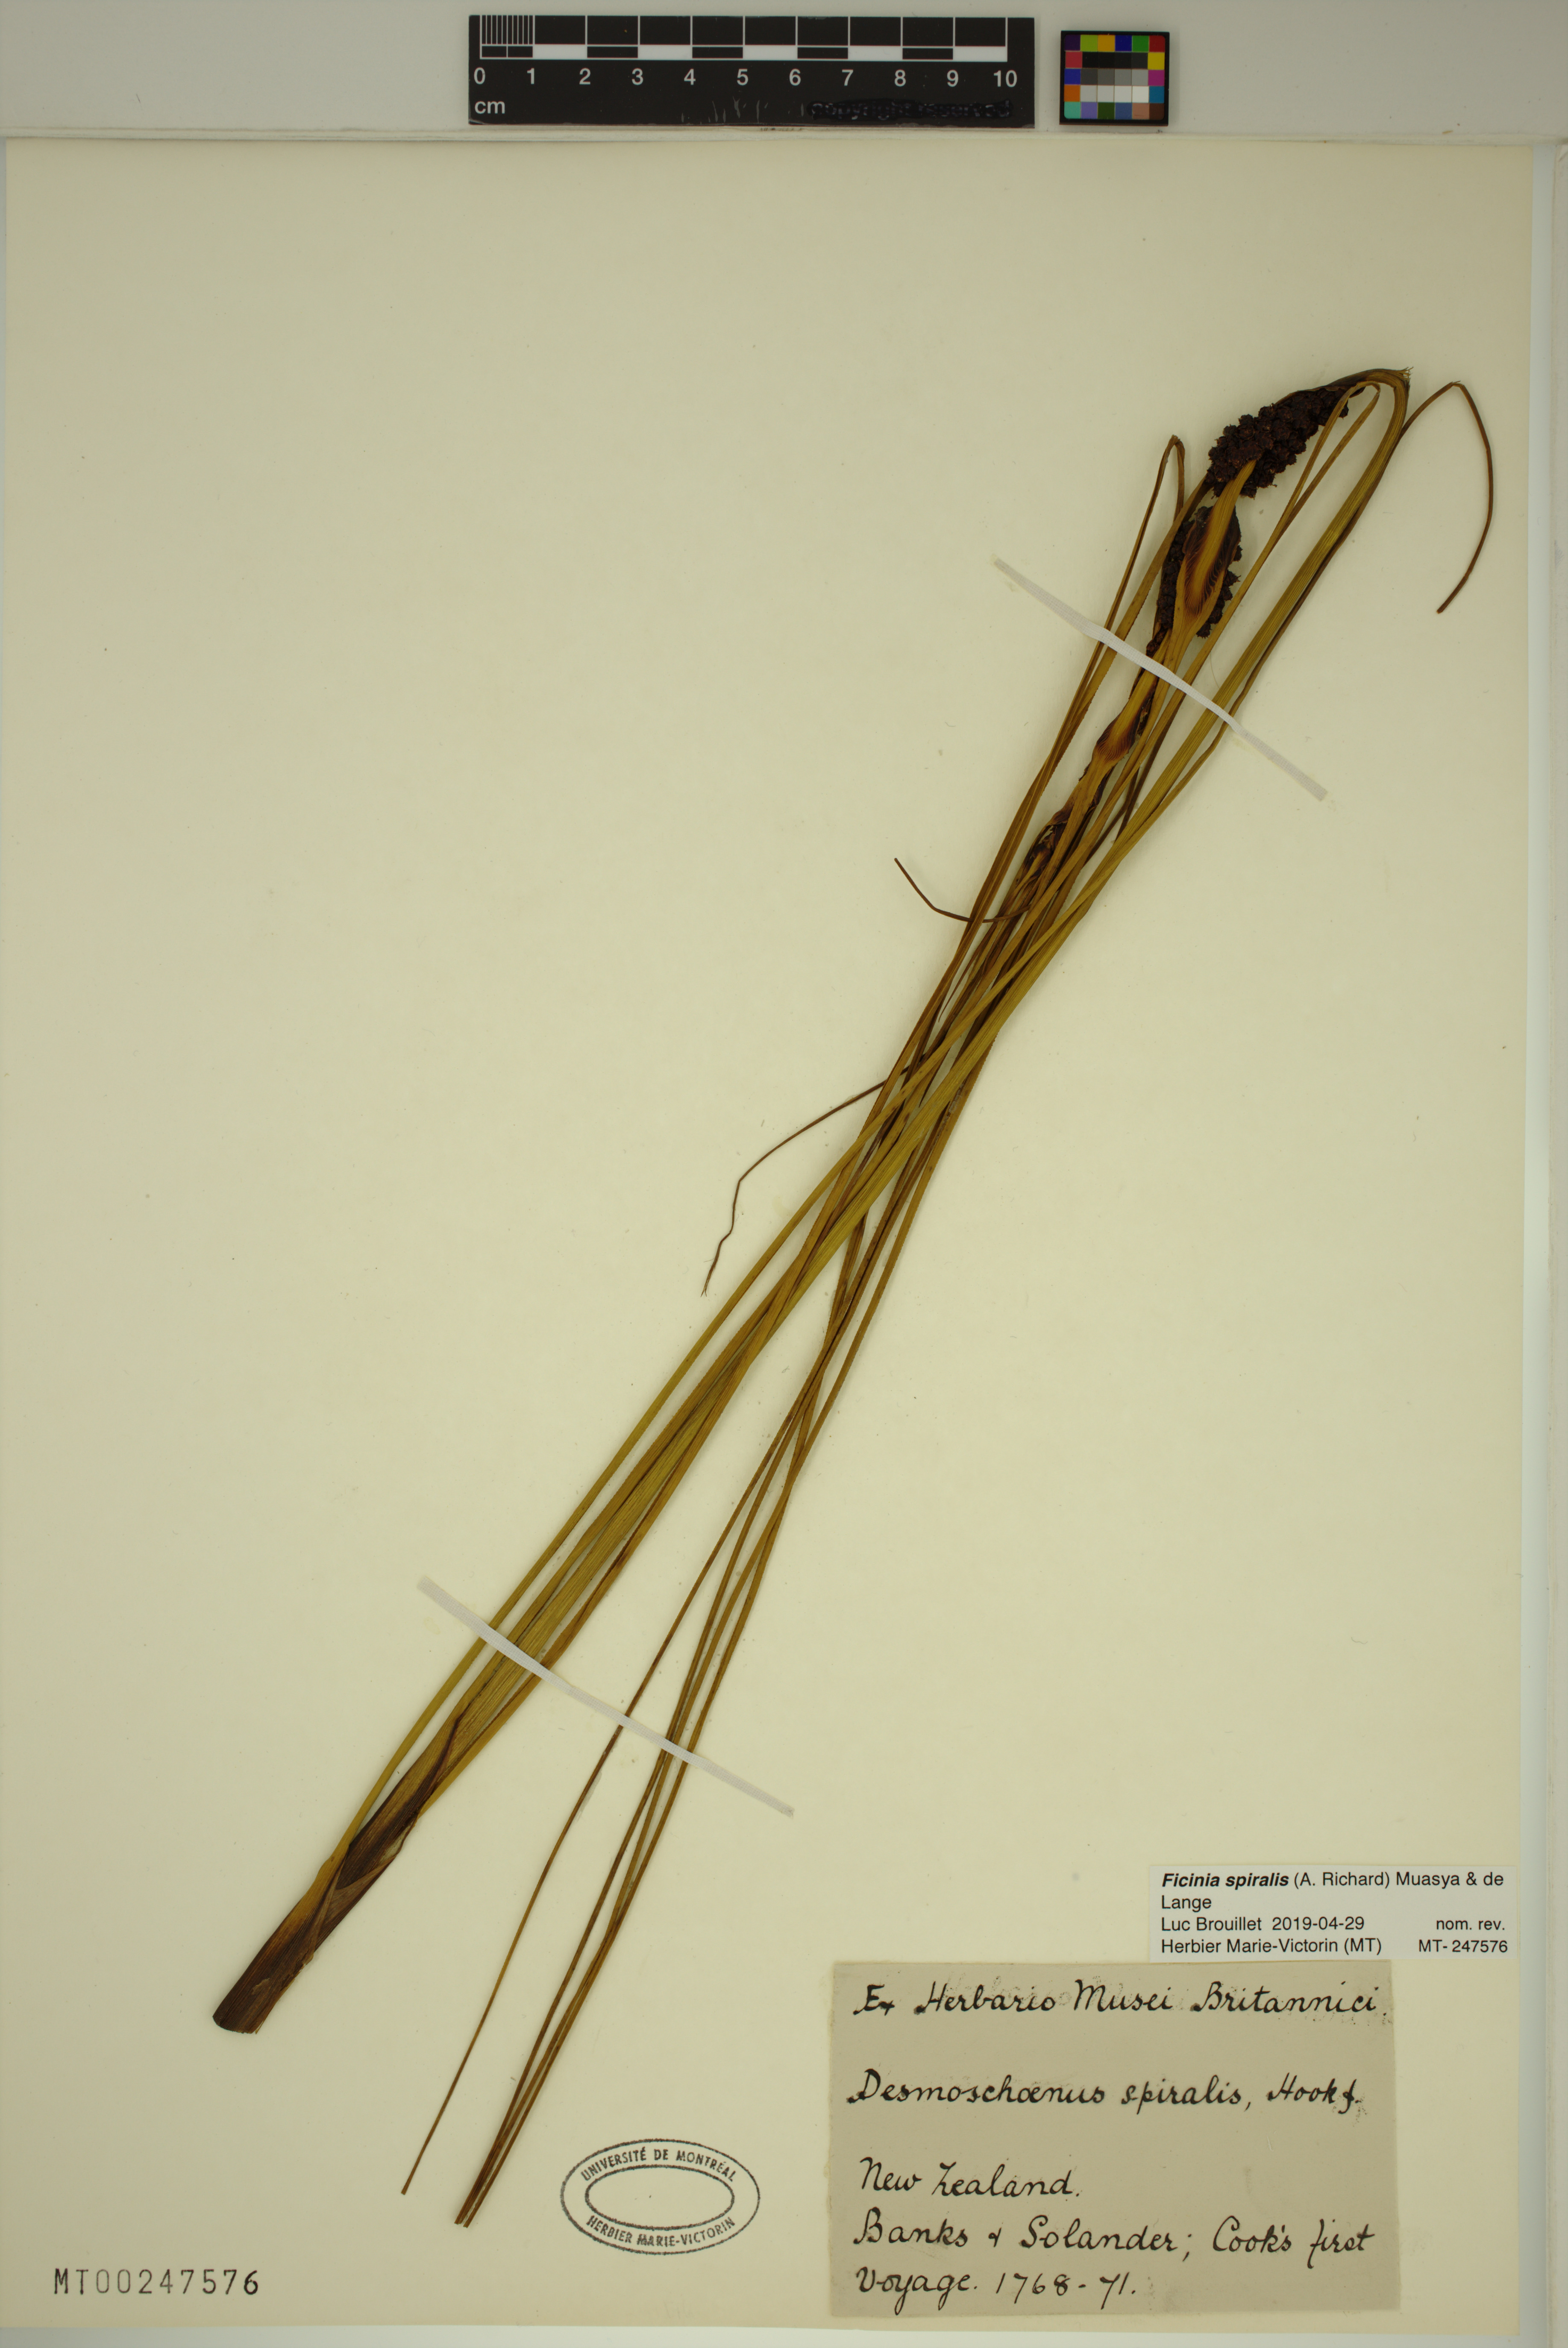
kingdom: Plantae
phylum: Tracheophyta
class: Liliopsida
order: Poales
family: Cyperaceae
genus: Ficinia
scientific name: Ficinia spiralis
